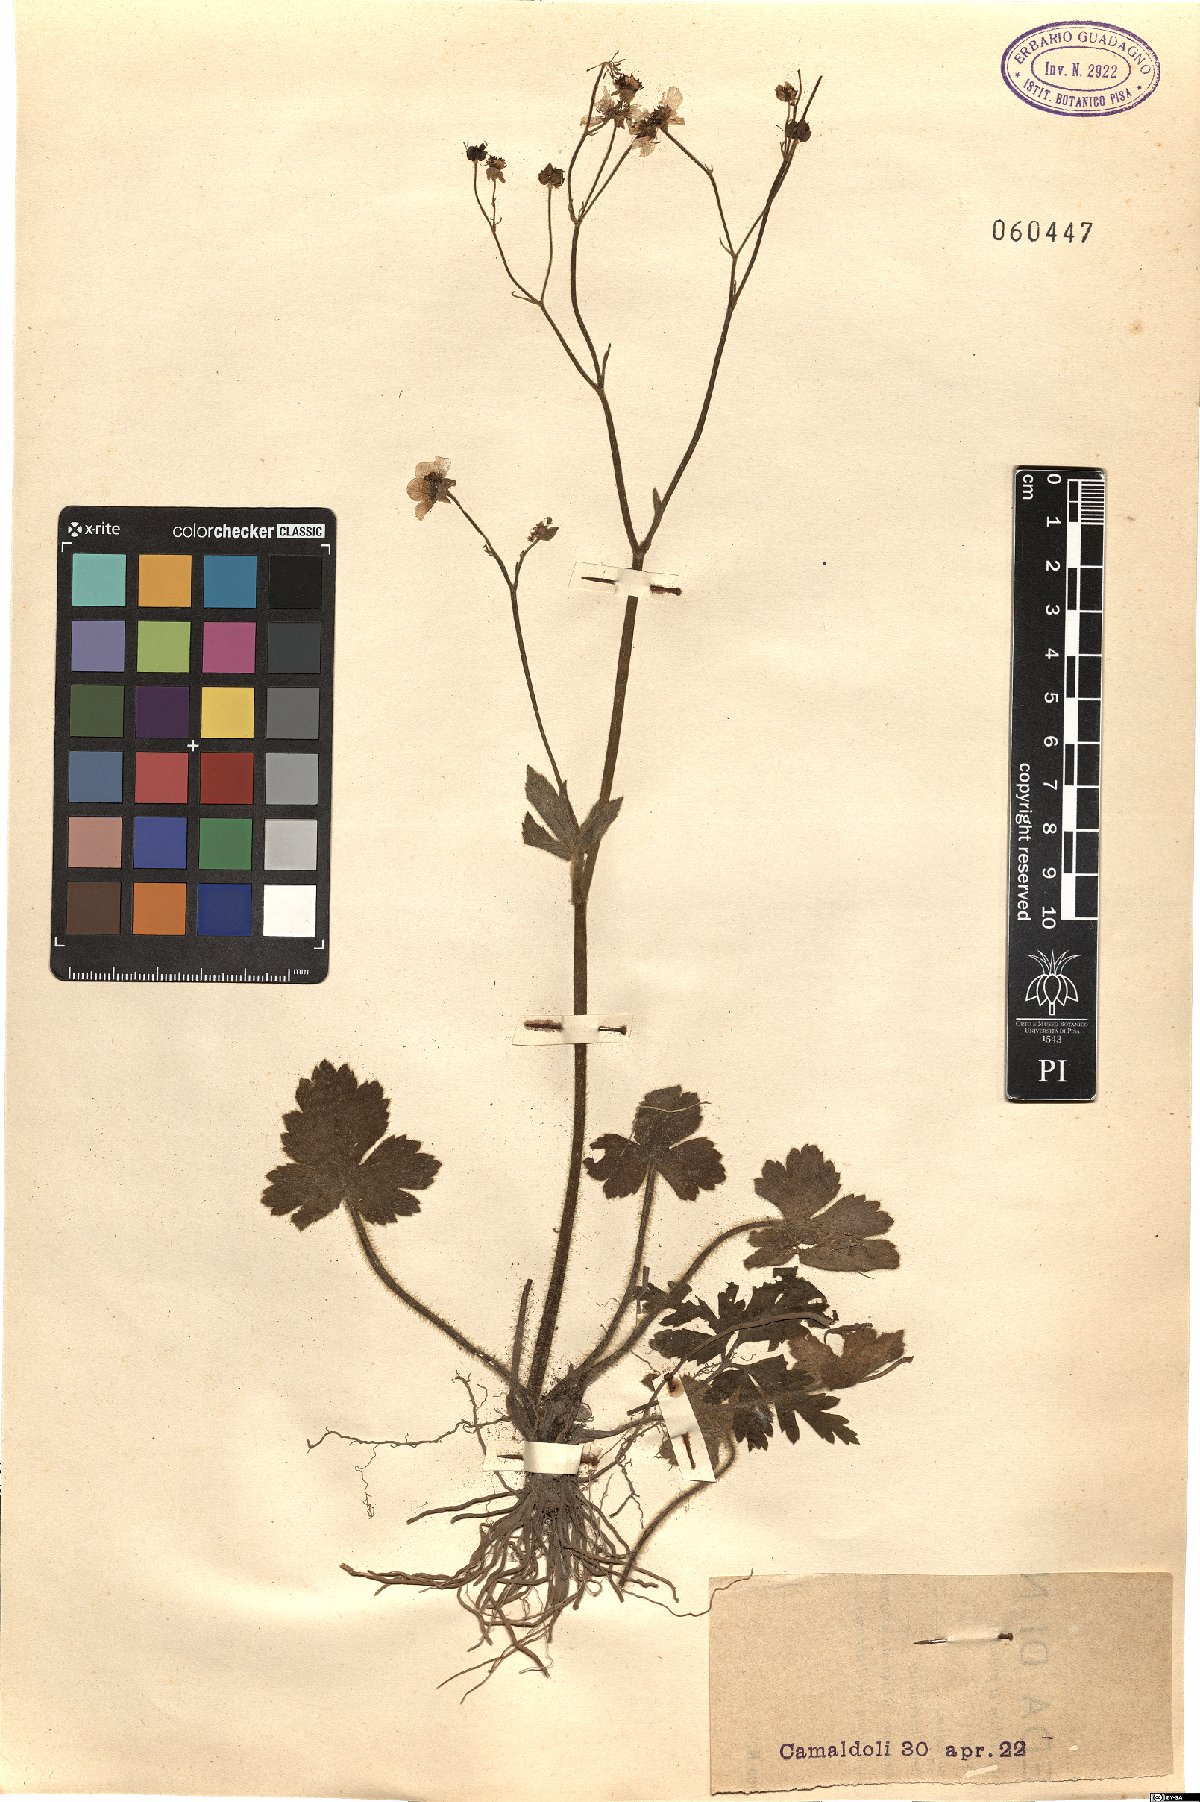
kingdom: Plantae
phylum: Tracheophyta
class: Magnoliopsida
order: Ranunculales
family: Ranunculaceae
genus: Ranunculus
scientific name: Ranunculus
